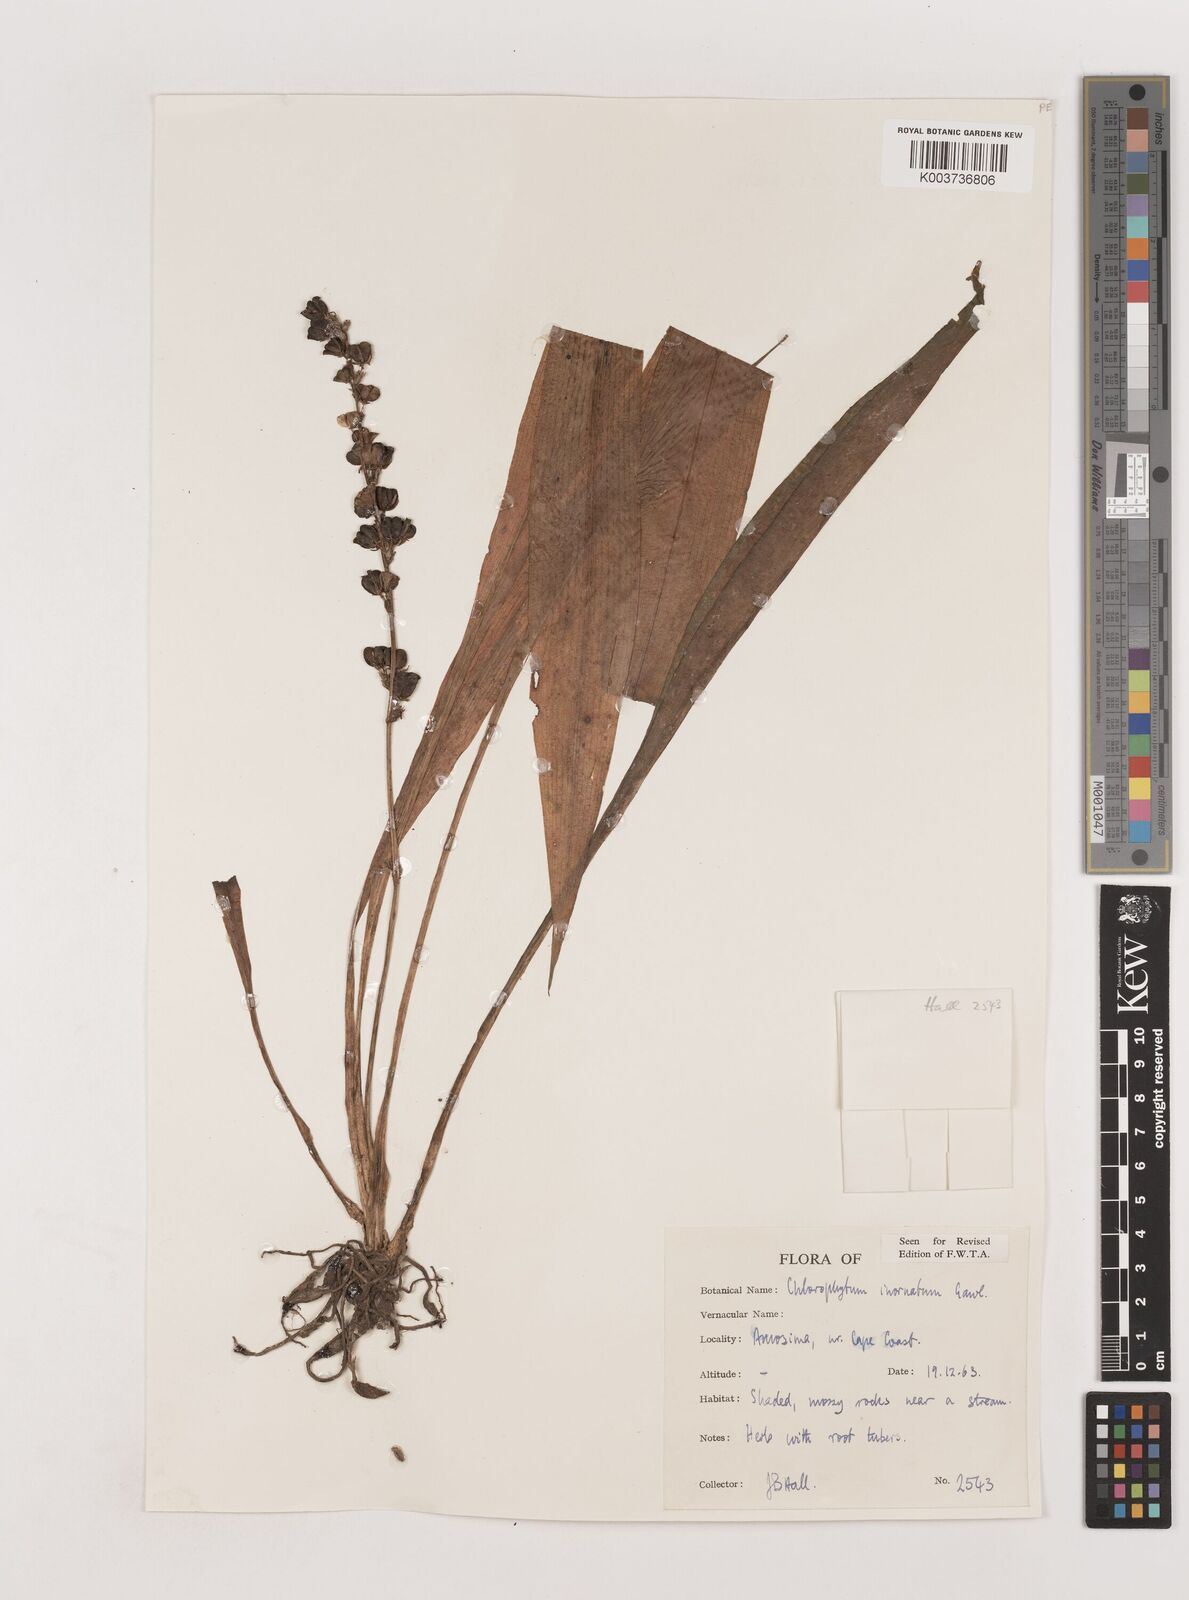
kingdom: Plantae
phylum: Tracheophyta
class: Liliopsida
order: Asparagales
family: Asparagaceae
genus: Chlorophytum
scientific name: Chlorophytum inornatum
